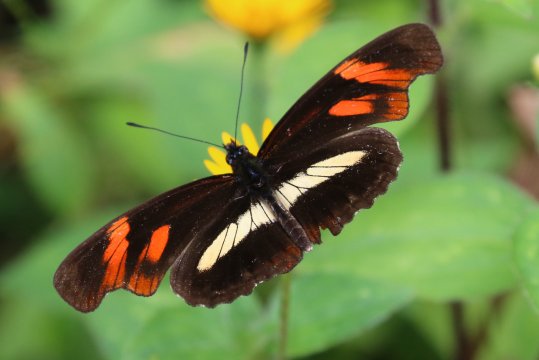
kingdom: Animalia
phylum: Arthropoda
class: Insecta
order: Lepidoptera
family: Nymphalidae
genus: Podotricha
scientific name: Podotricha telesiphe
